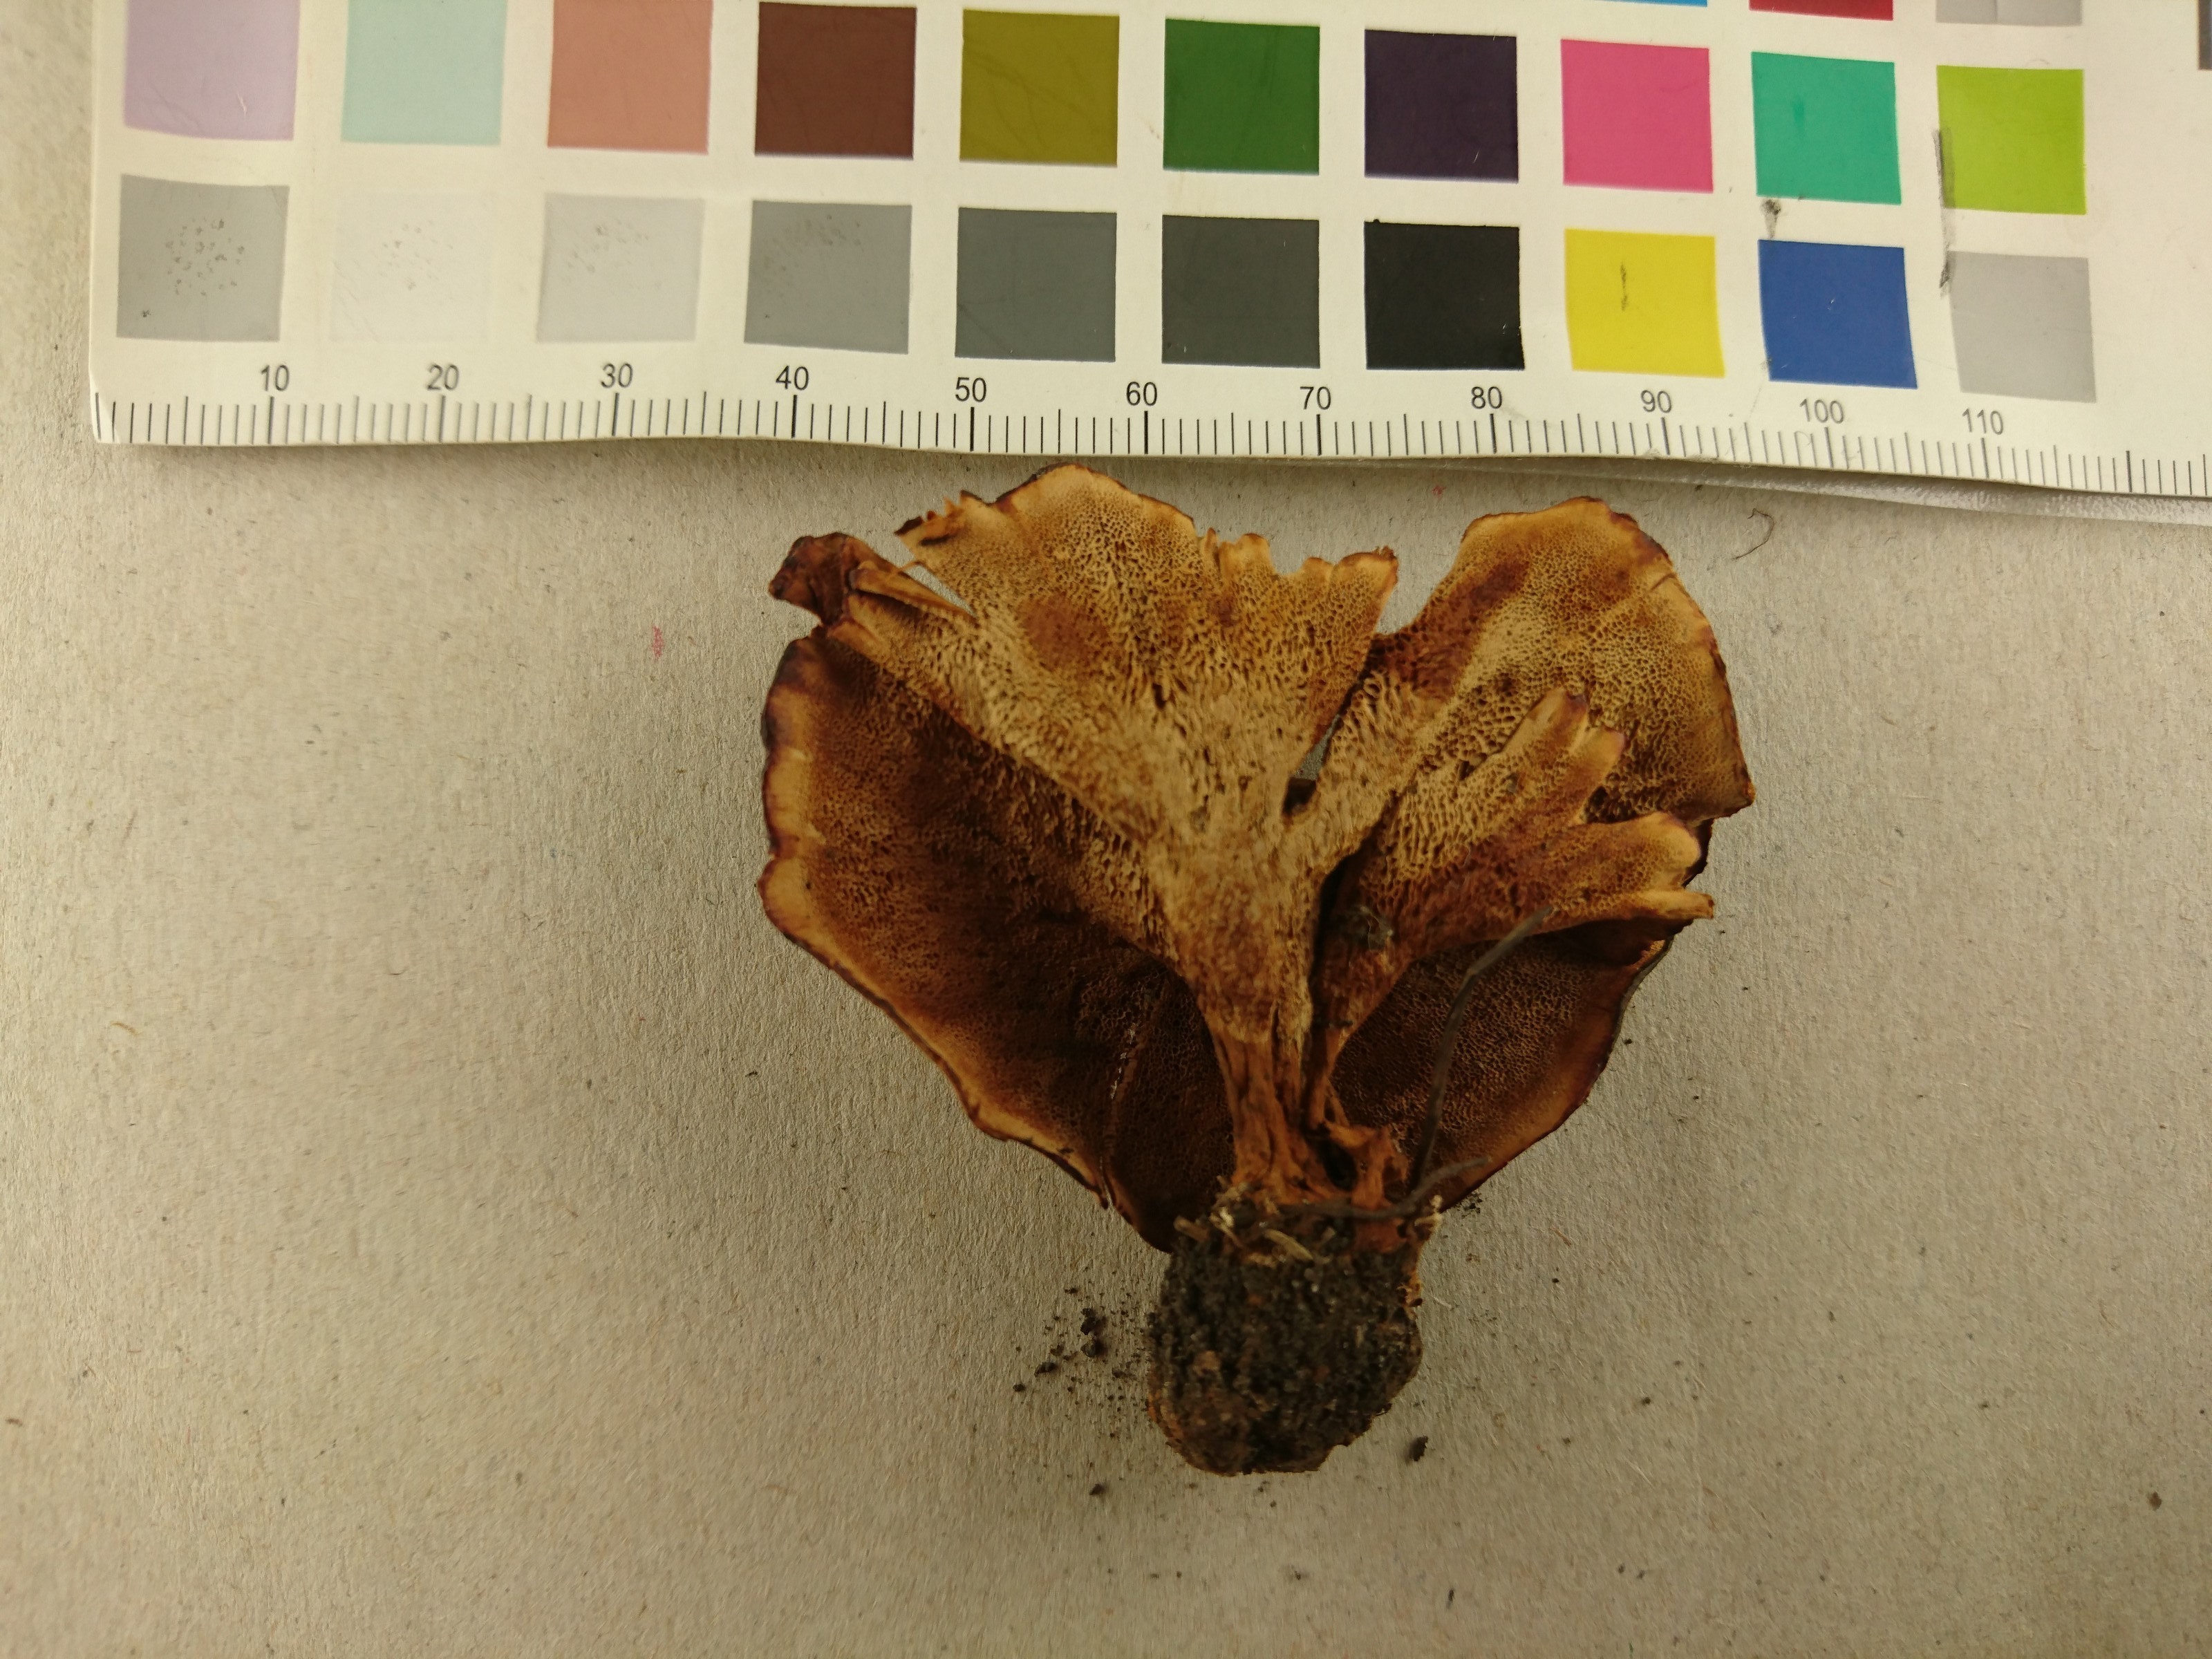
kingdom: Fungi
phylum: Basidiomycota
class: Agaricomycetes
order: Hymenochaetales
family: Hymenochaetaceae
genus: Coltricia
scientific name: Coltricia perennis
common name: Tiger's eye
